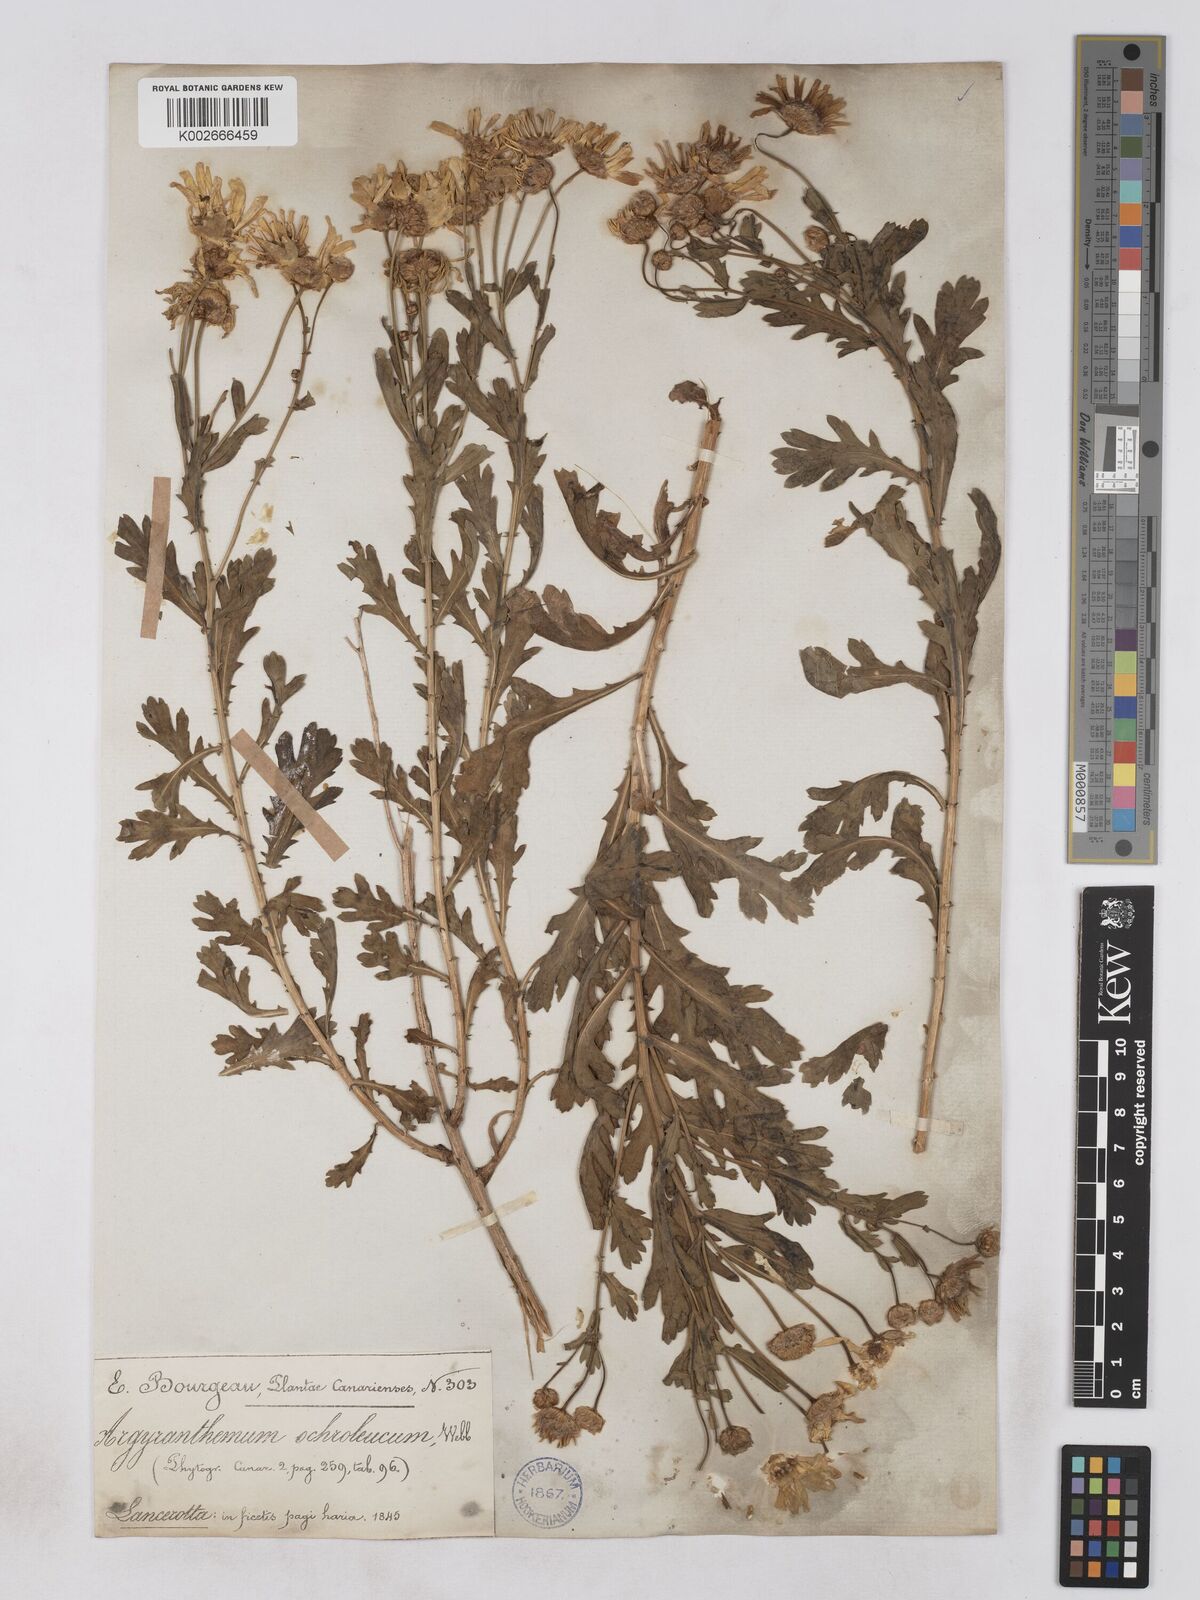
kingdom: Plantae
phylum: Tracheophyta
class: Magnoliopsida
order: Asterales
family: Asteraceae
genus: Argyranthemum
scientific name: Argyranthemum maderense
